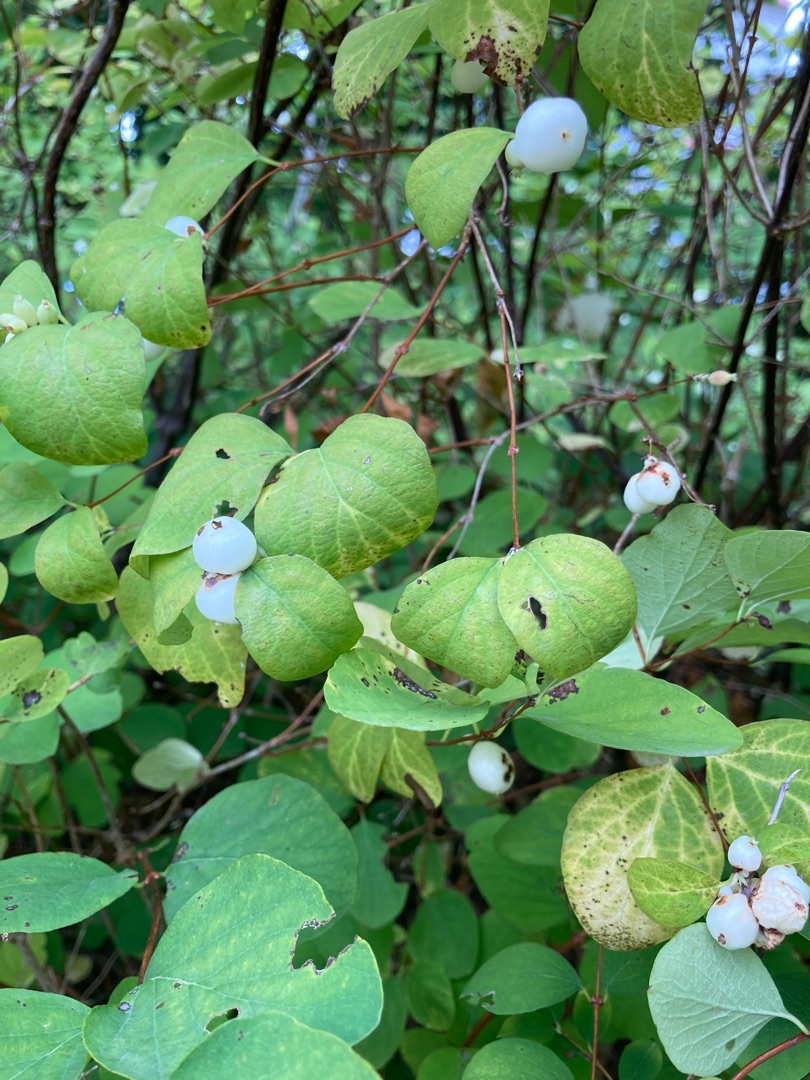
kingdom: Plantae
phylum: Tracheophyta
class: Magnoliopsida
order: Dipsacales
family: Caprifoliaceae
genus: Symphoricarpos
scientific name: Symphoricarpos albus
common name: Almindelig snebær
